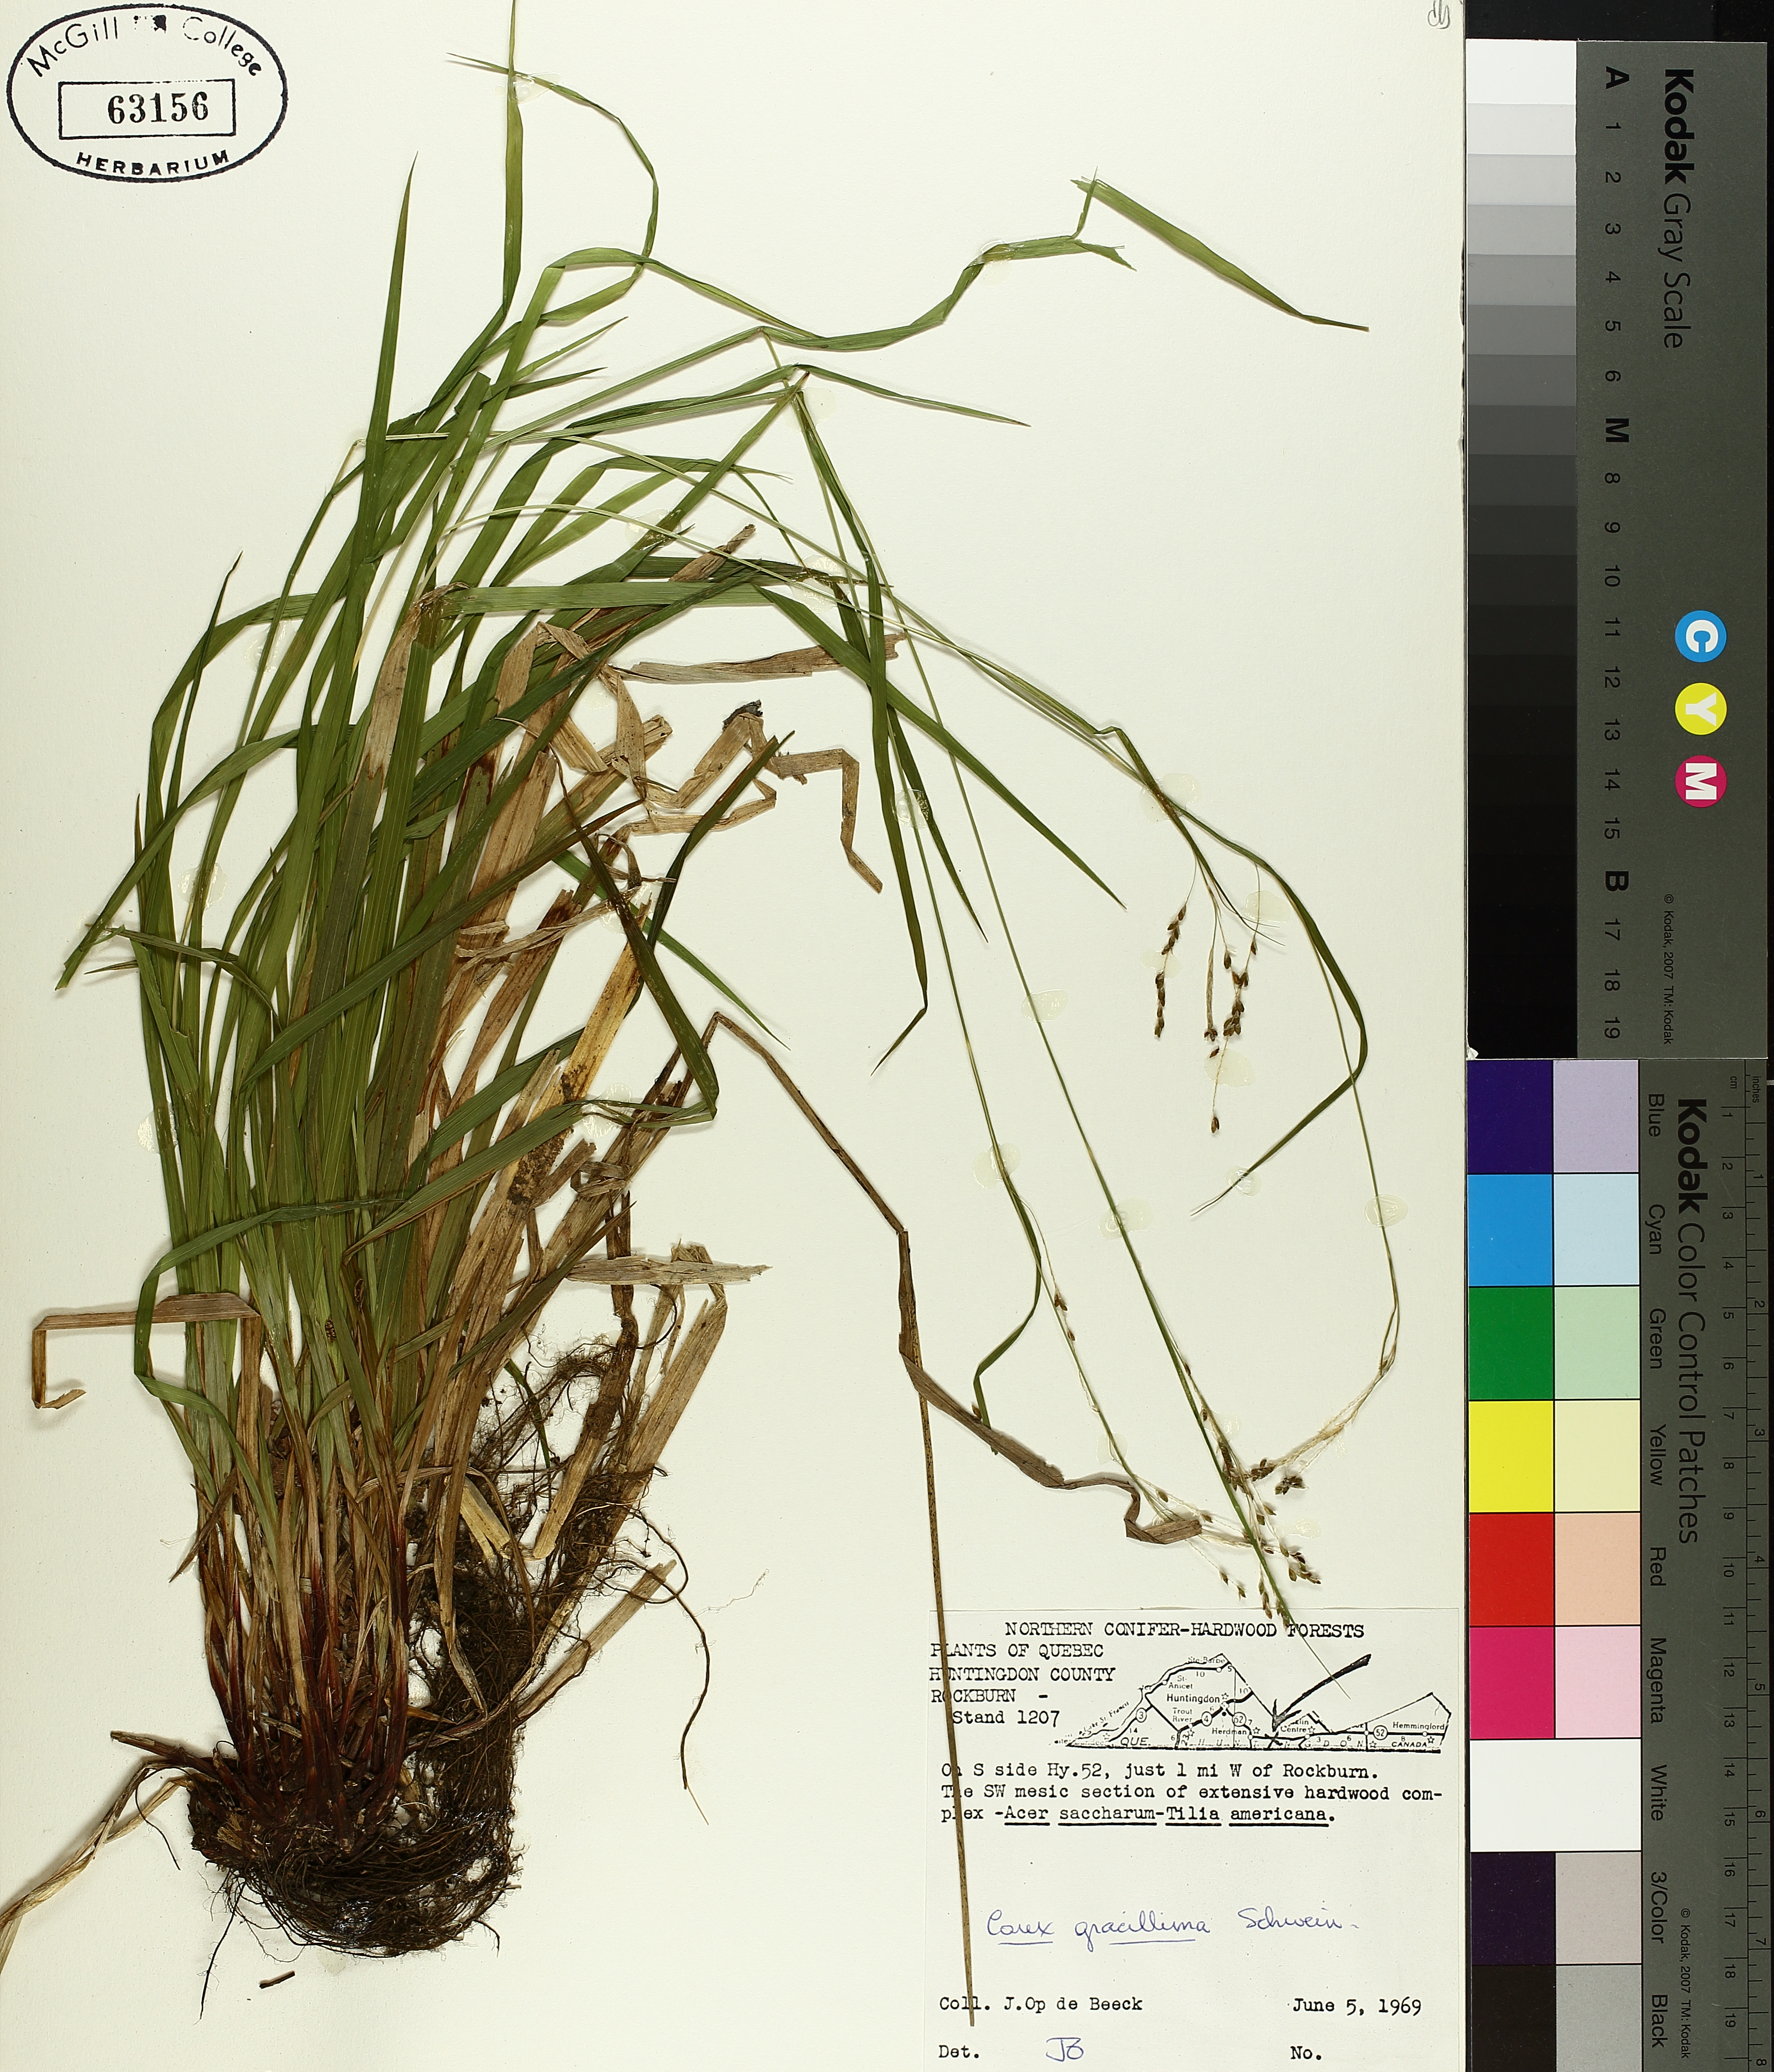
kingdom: Plantae
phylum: Tracheophyta
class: Liliopsida
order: Poales
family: Cyperaceae
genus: Carex
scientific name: Carex gracillima
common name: Graceful sedge
